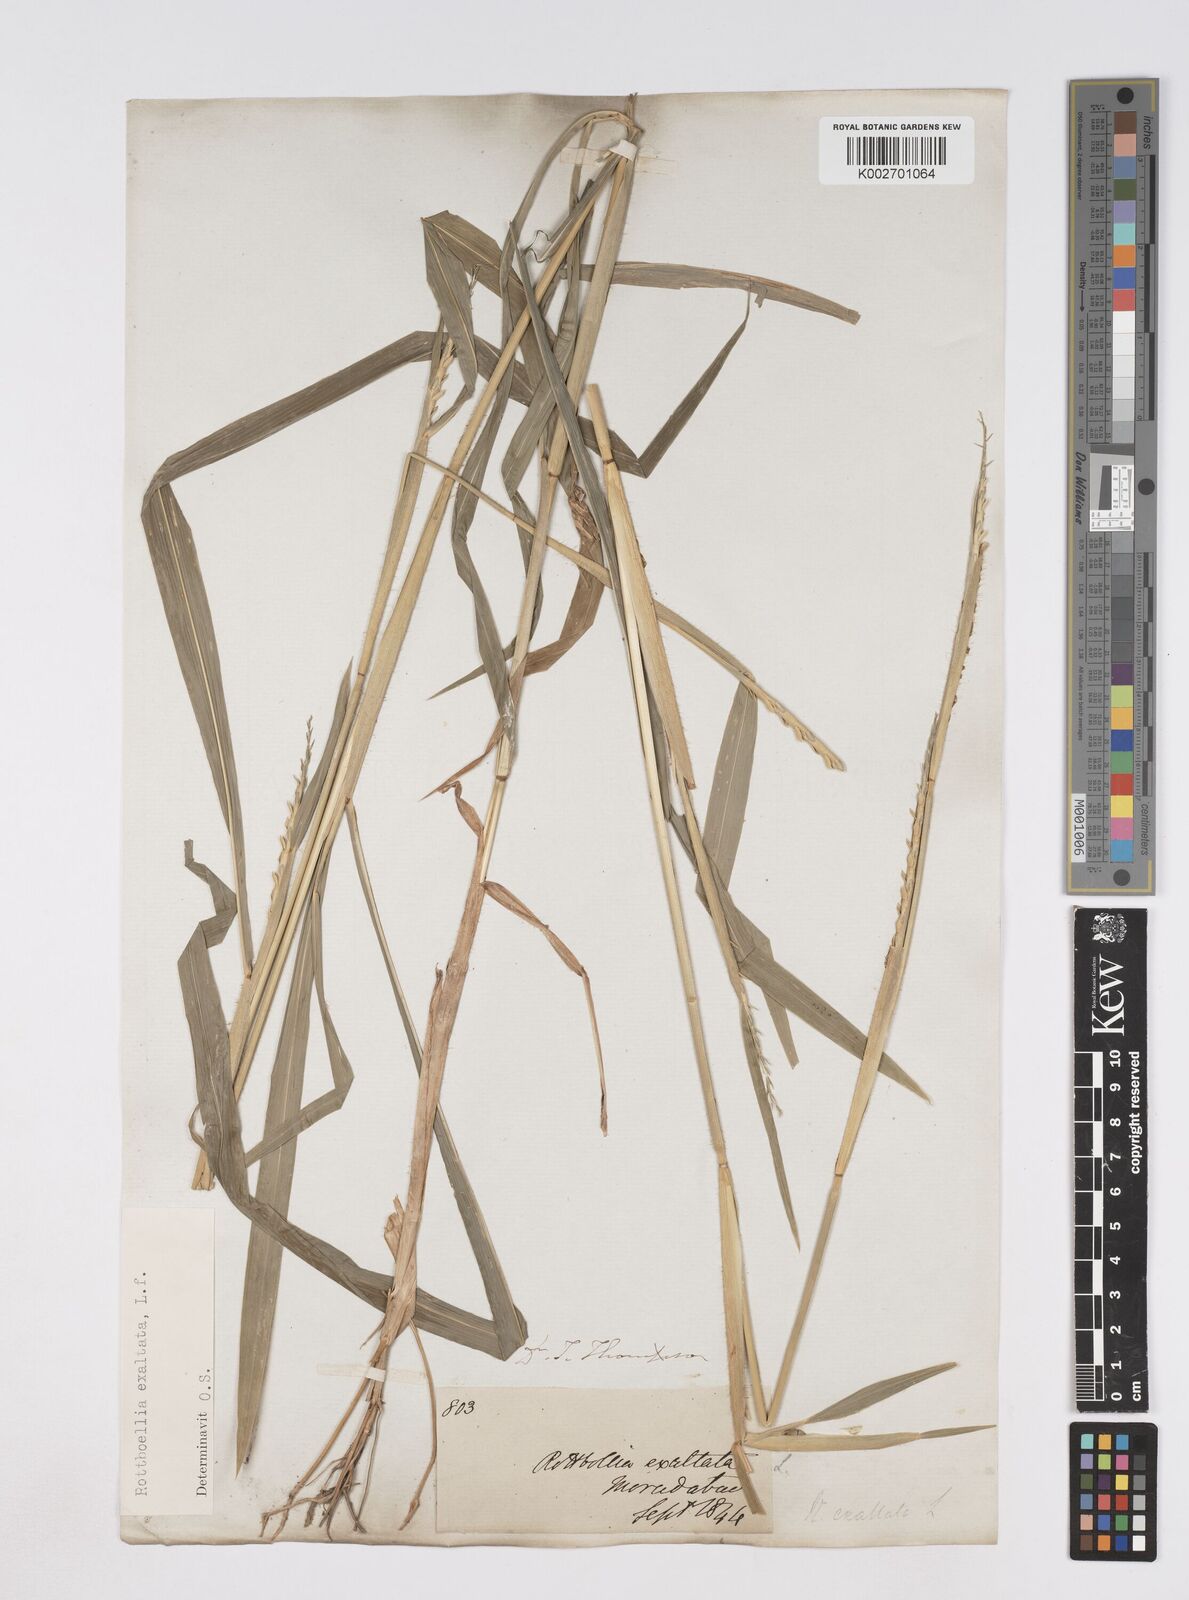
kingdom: Plantae
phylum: Tracheophyta
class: Liliopsida
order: Poales
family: Poaceae
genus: Ophiuros
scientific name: Ophiuros exaltatus
